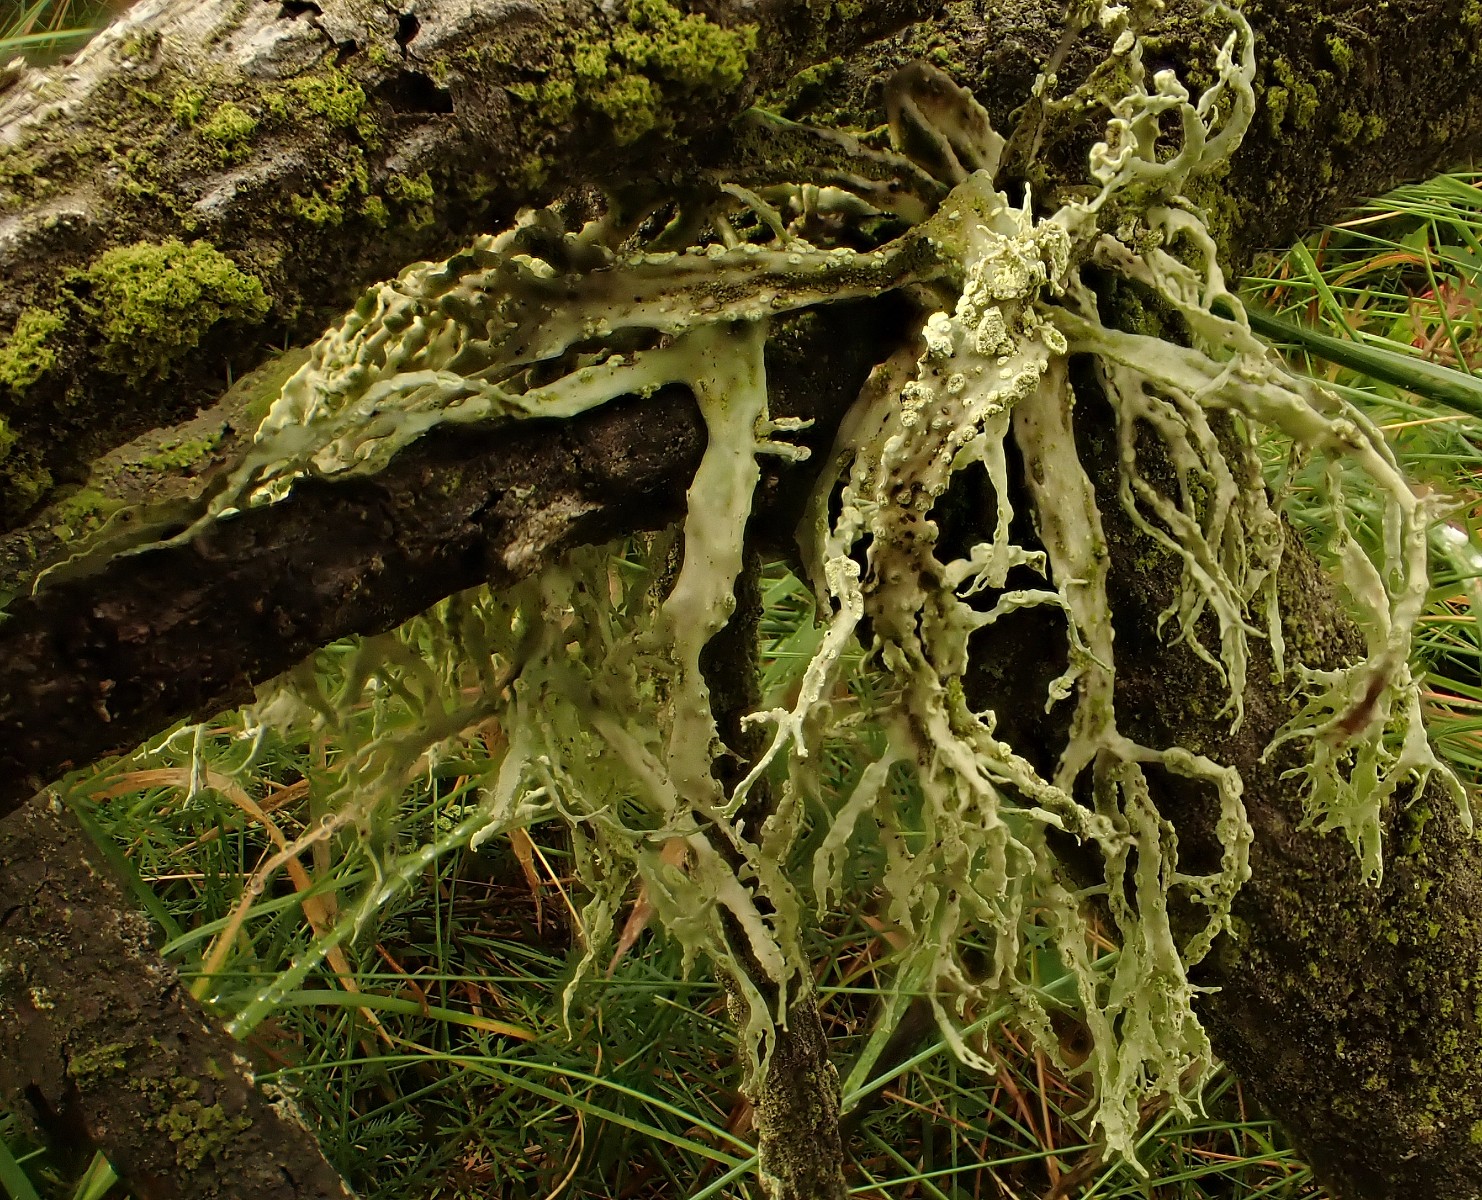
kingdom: Fungi
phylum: Ascomycota
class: Lecanoromycetes
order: Lecanorales
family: Parmeliaceae
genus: Evernia
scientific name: Evernia prunastri
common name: almindelig slåenlav
